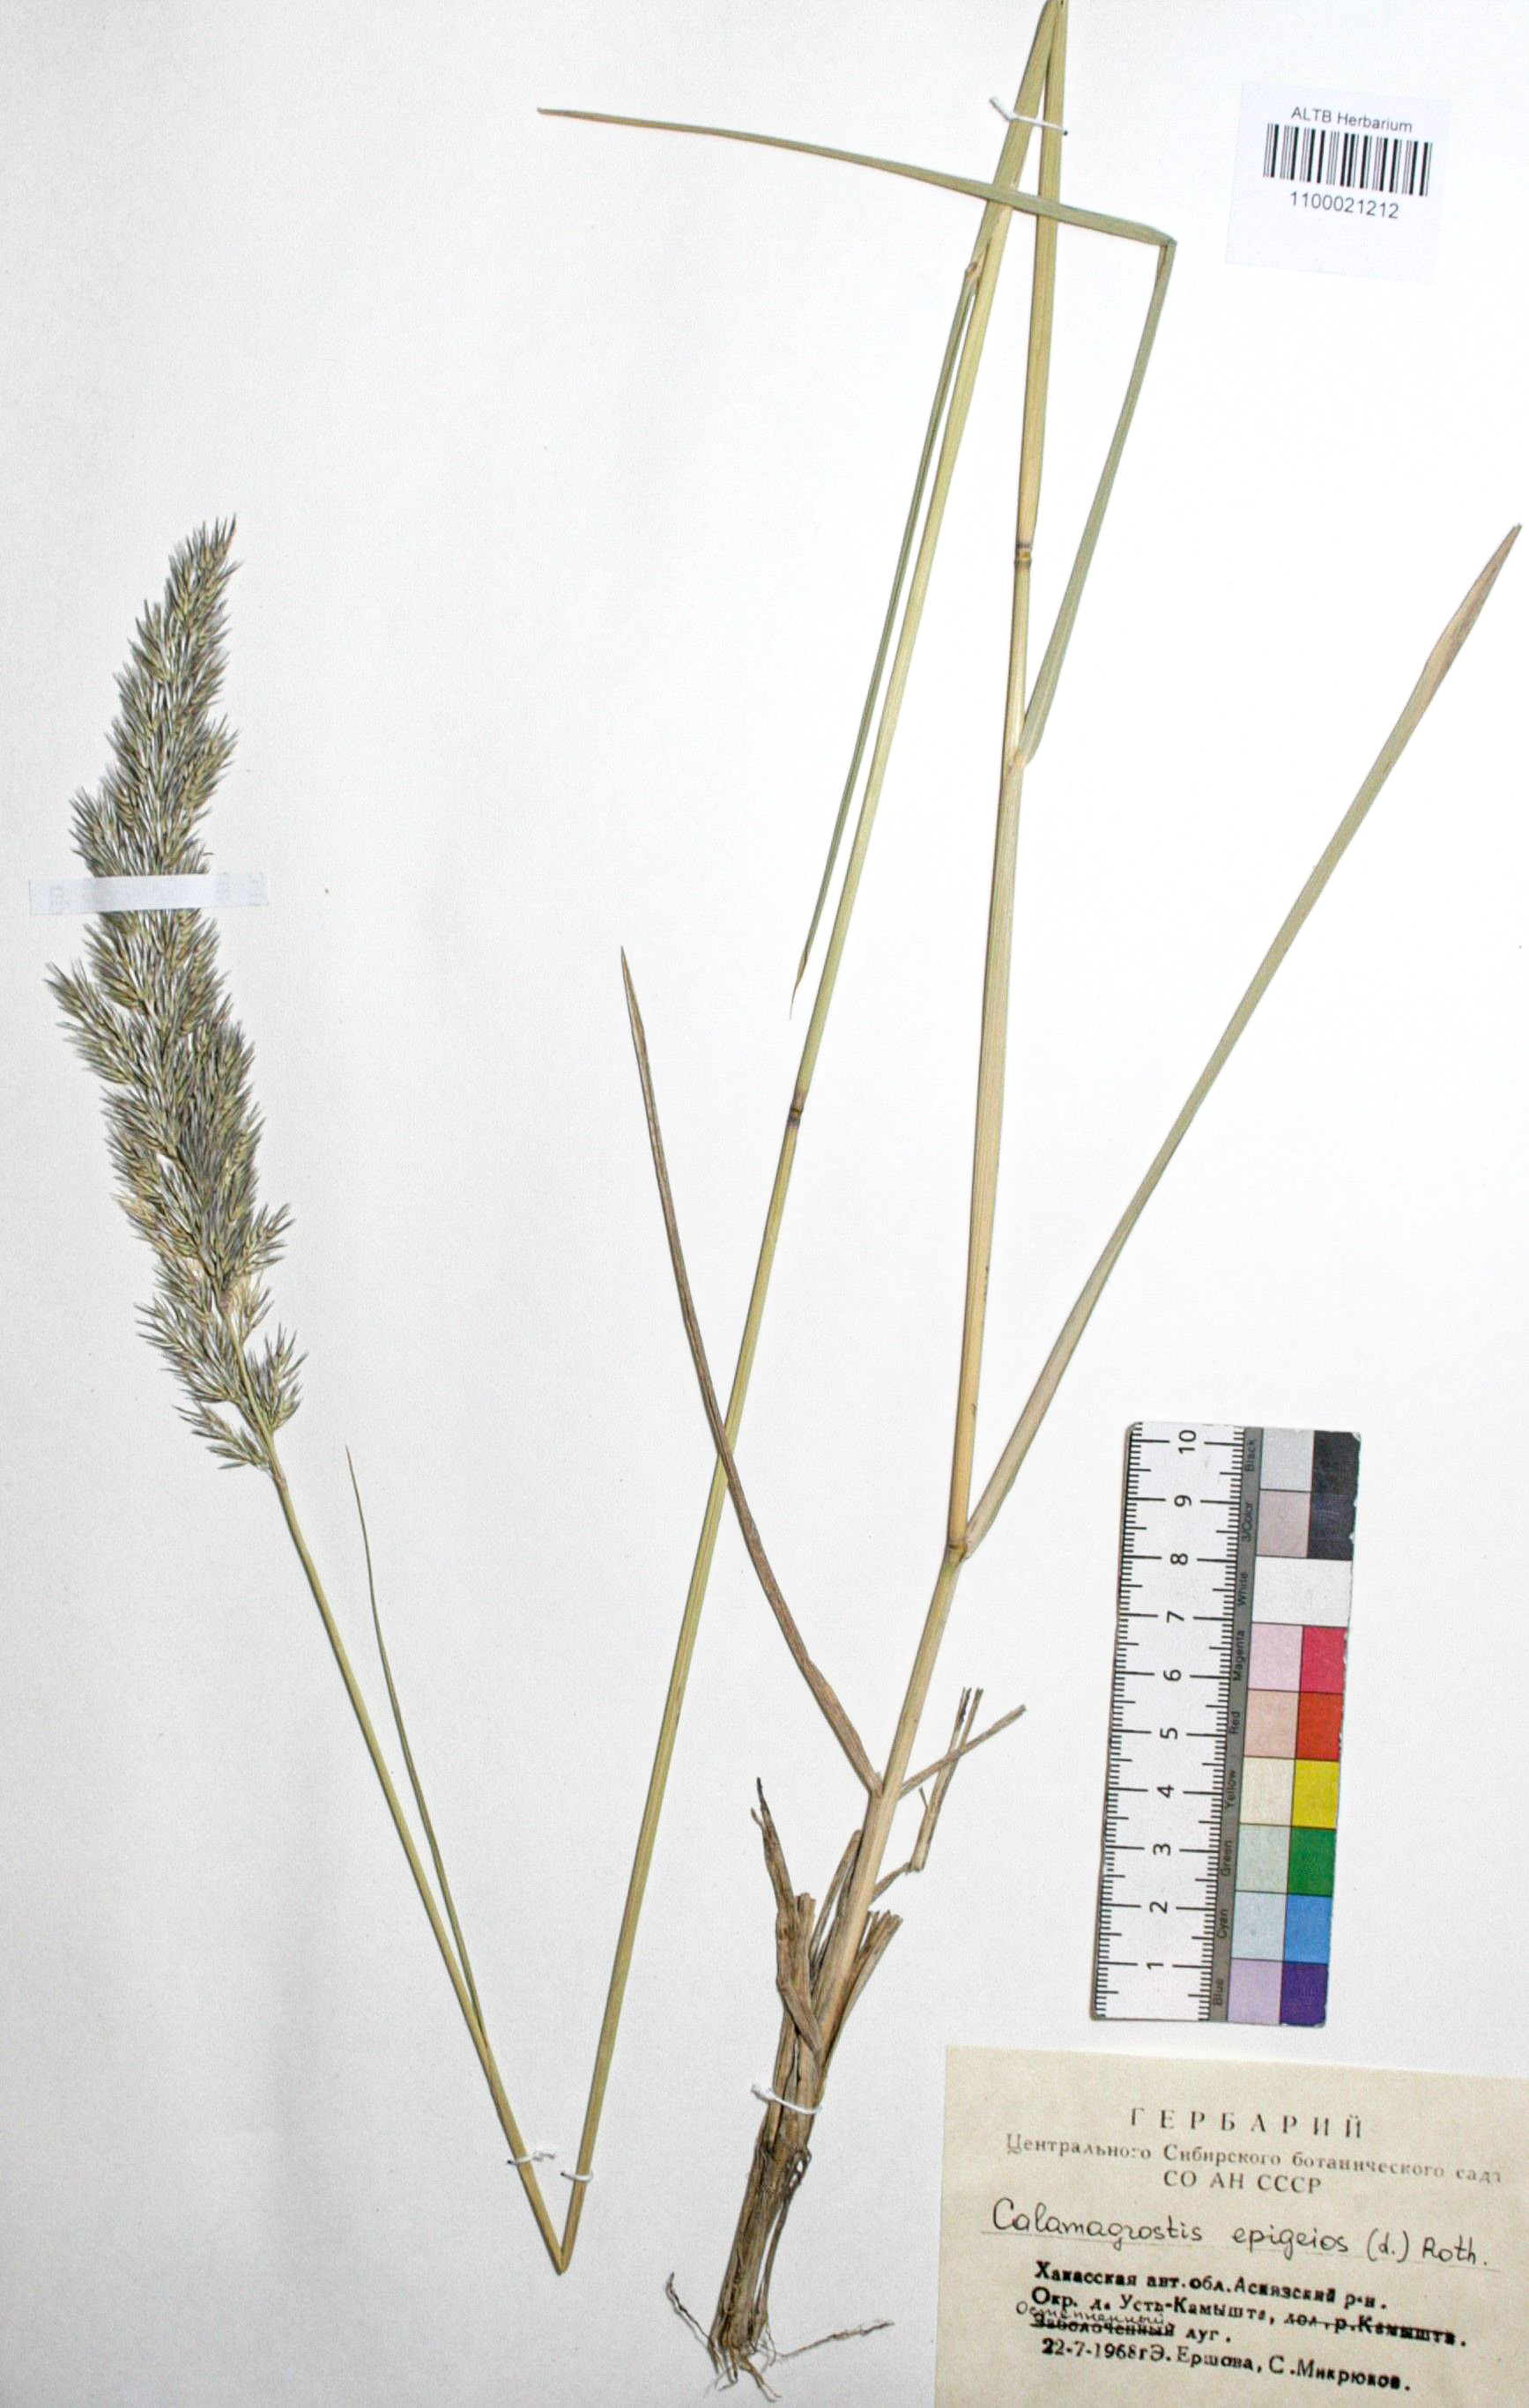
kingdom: Plantae
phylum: Tracheophyta
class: Liliopsida
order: Poales
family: Poaceae
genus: Calamagrostis
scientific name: Calamagrostis epigejos
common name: Wood small-reed
